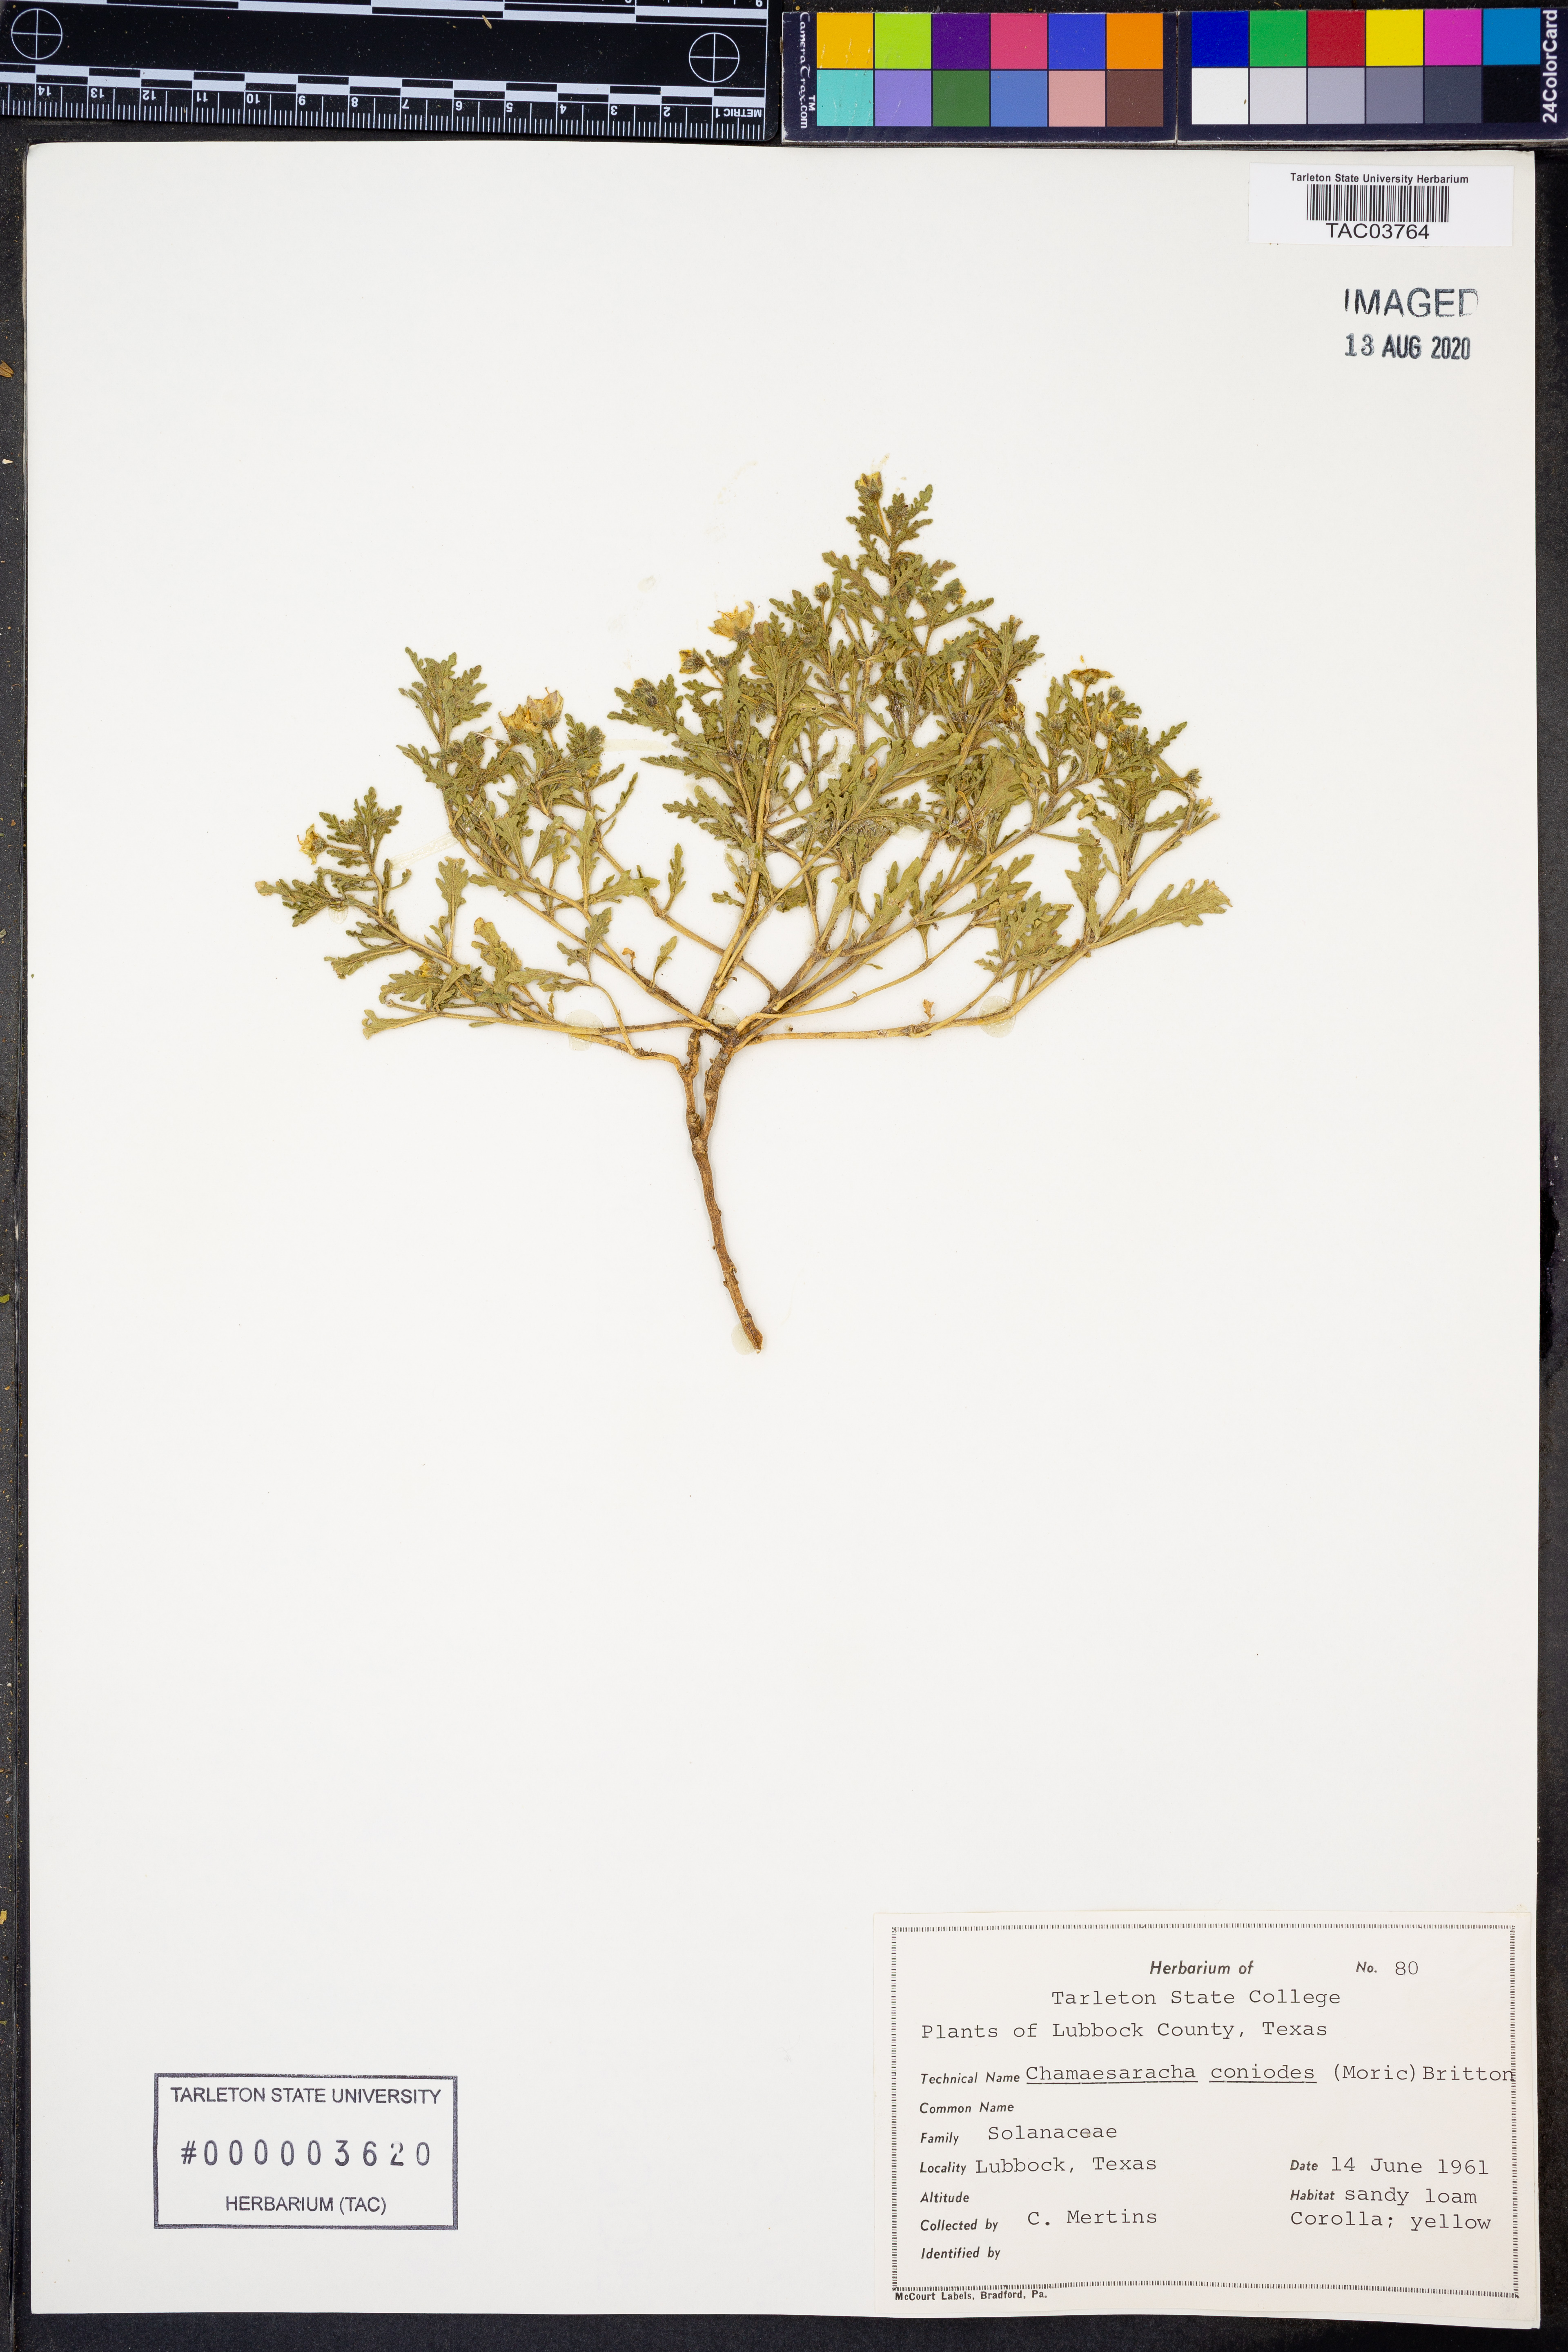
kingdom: Plantae
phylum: Tracheophyta
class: Magnoliopsida
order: Solanales
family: Solanaceae
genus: Chamaesaracha
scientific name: Chamaesaracha coniodes
